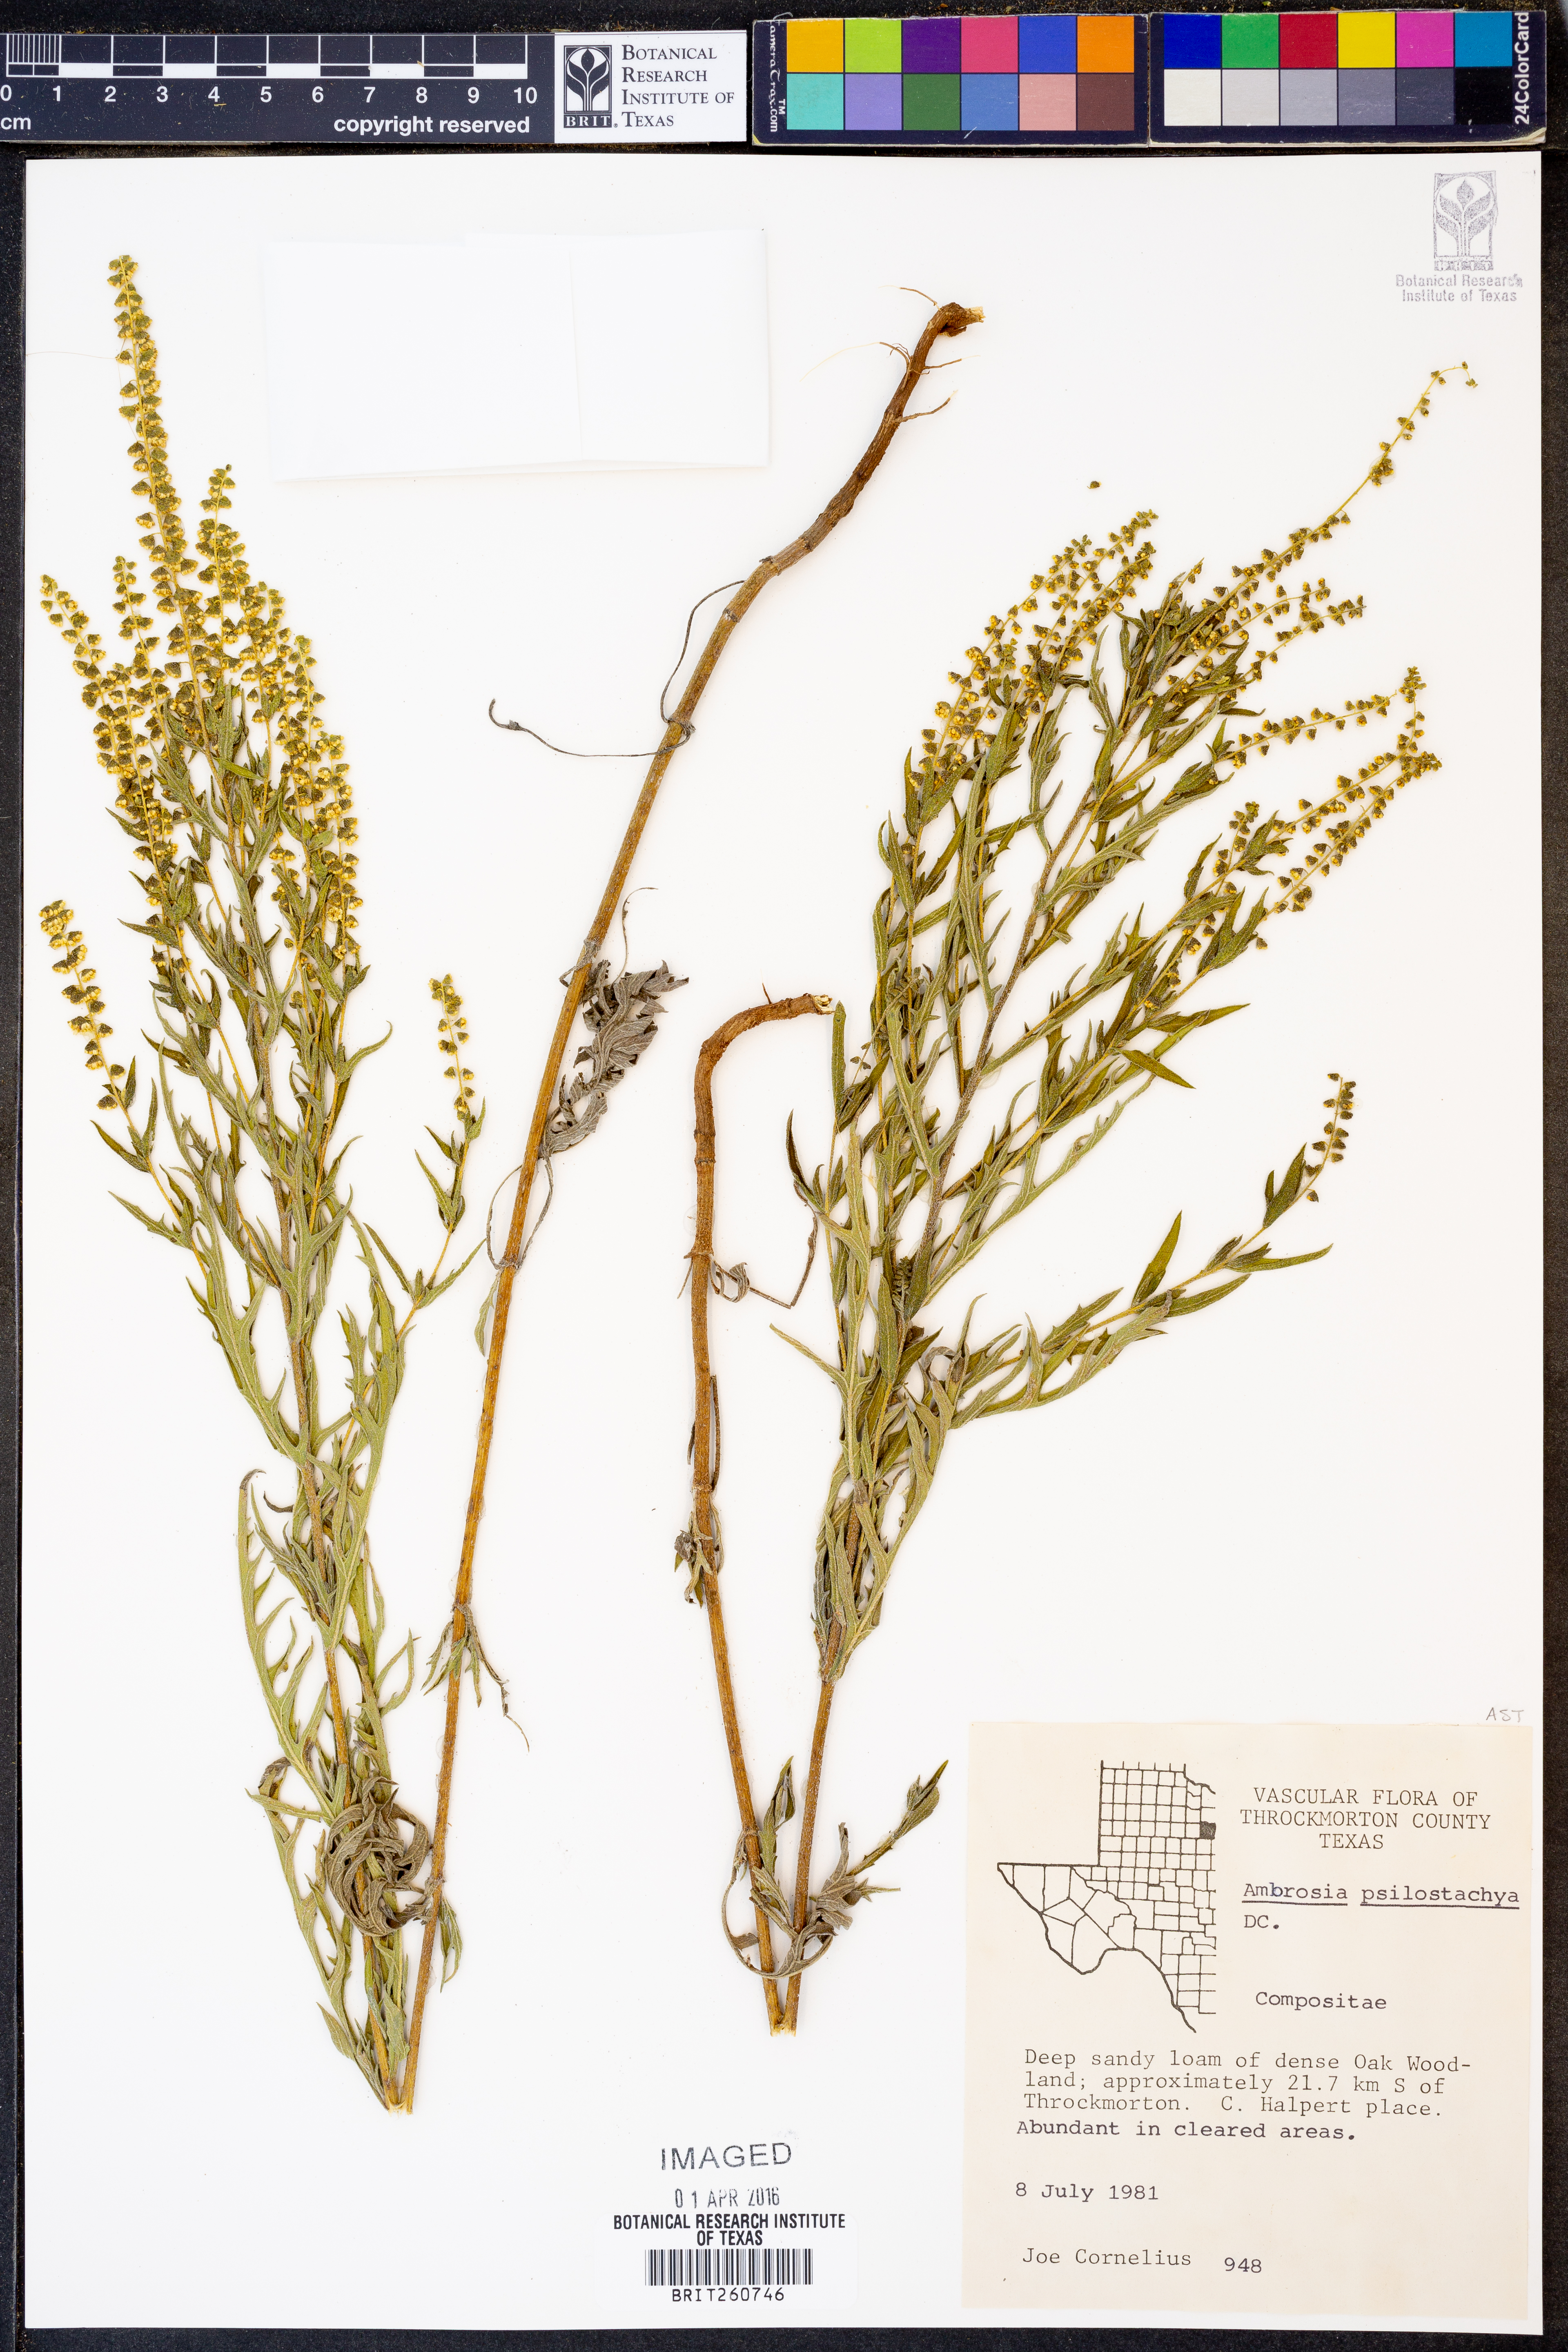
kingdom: Plantae
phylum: Tracheophyta
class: Magnoliopsida
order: Asterales
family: Asteraceae
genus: Ambrosia
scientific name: Ambrosia psilostachya
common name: Perennial ragweed
